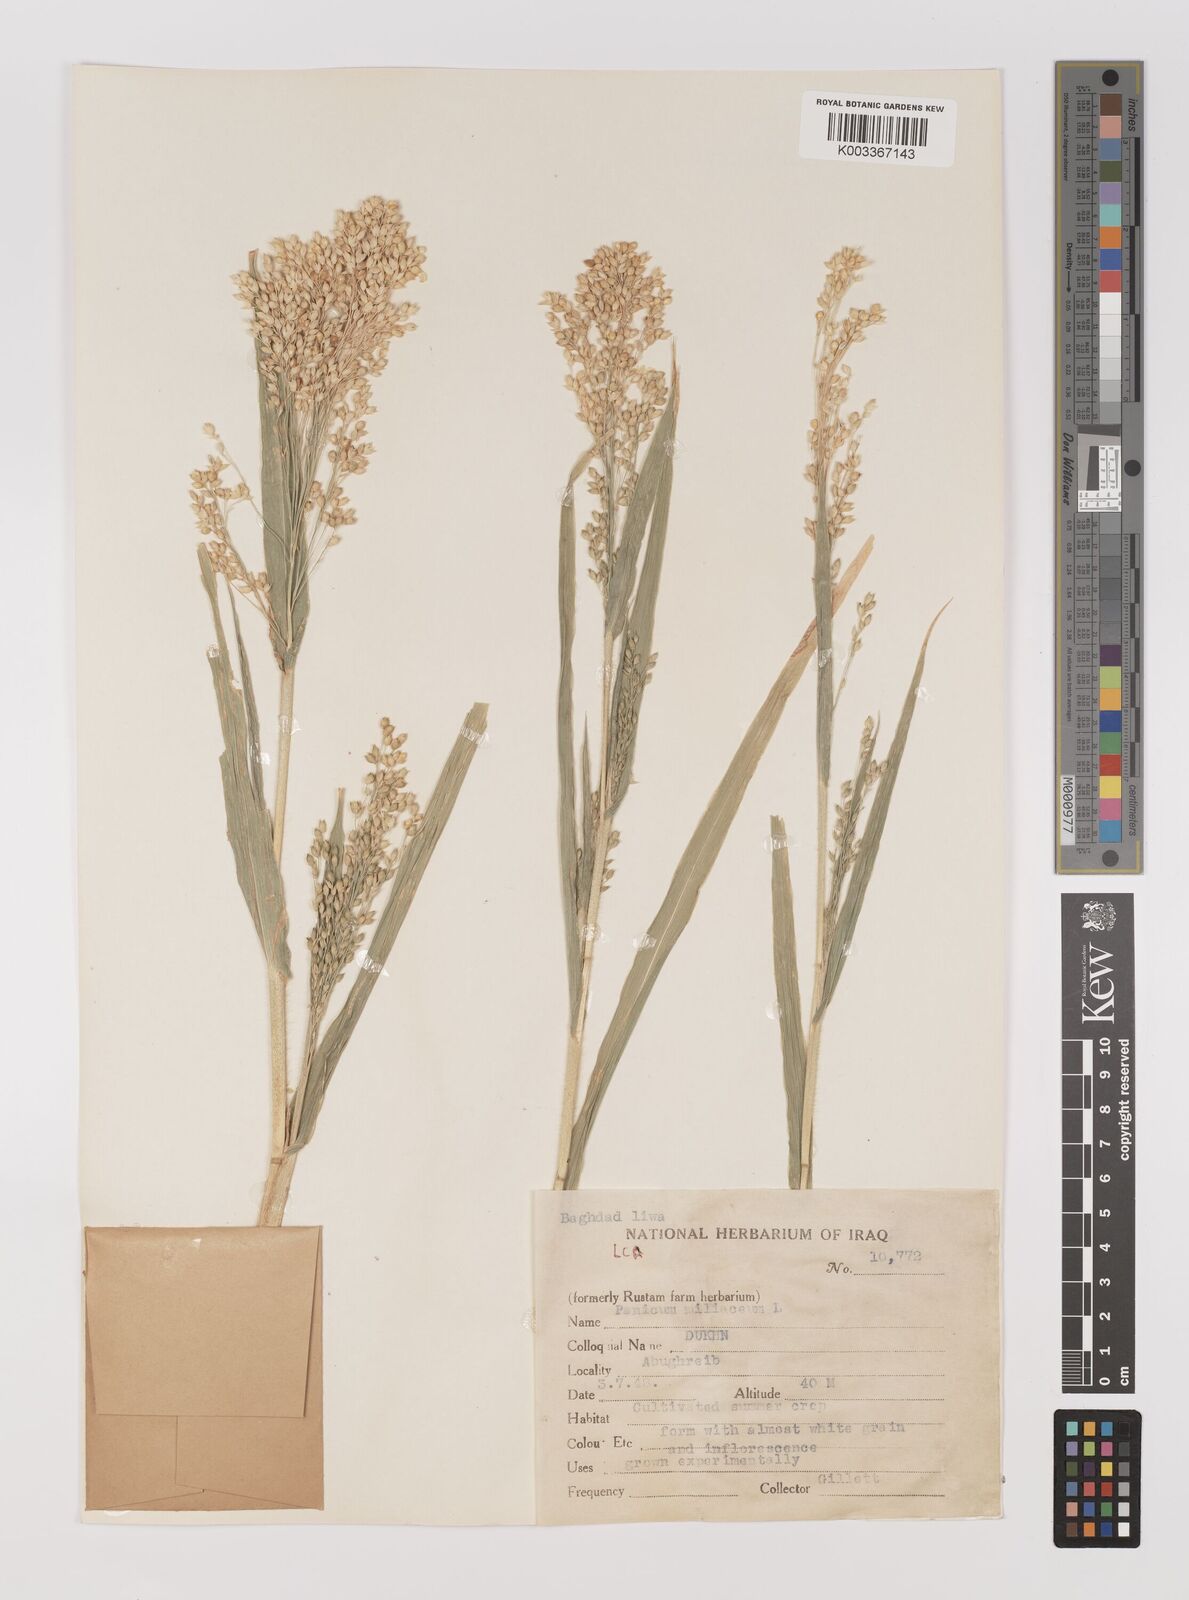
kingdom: Plantae
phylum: Tracheophyta
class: Liliopsida
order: Poales
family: Poaceae
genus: Panicum
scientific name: Panicum miliaceum
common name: Common millet
